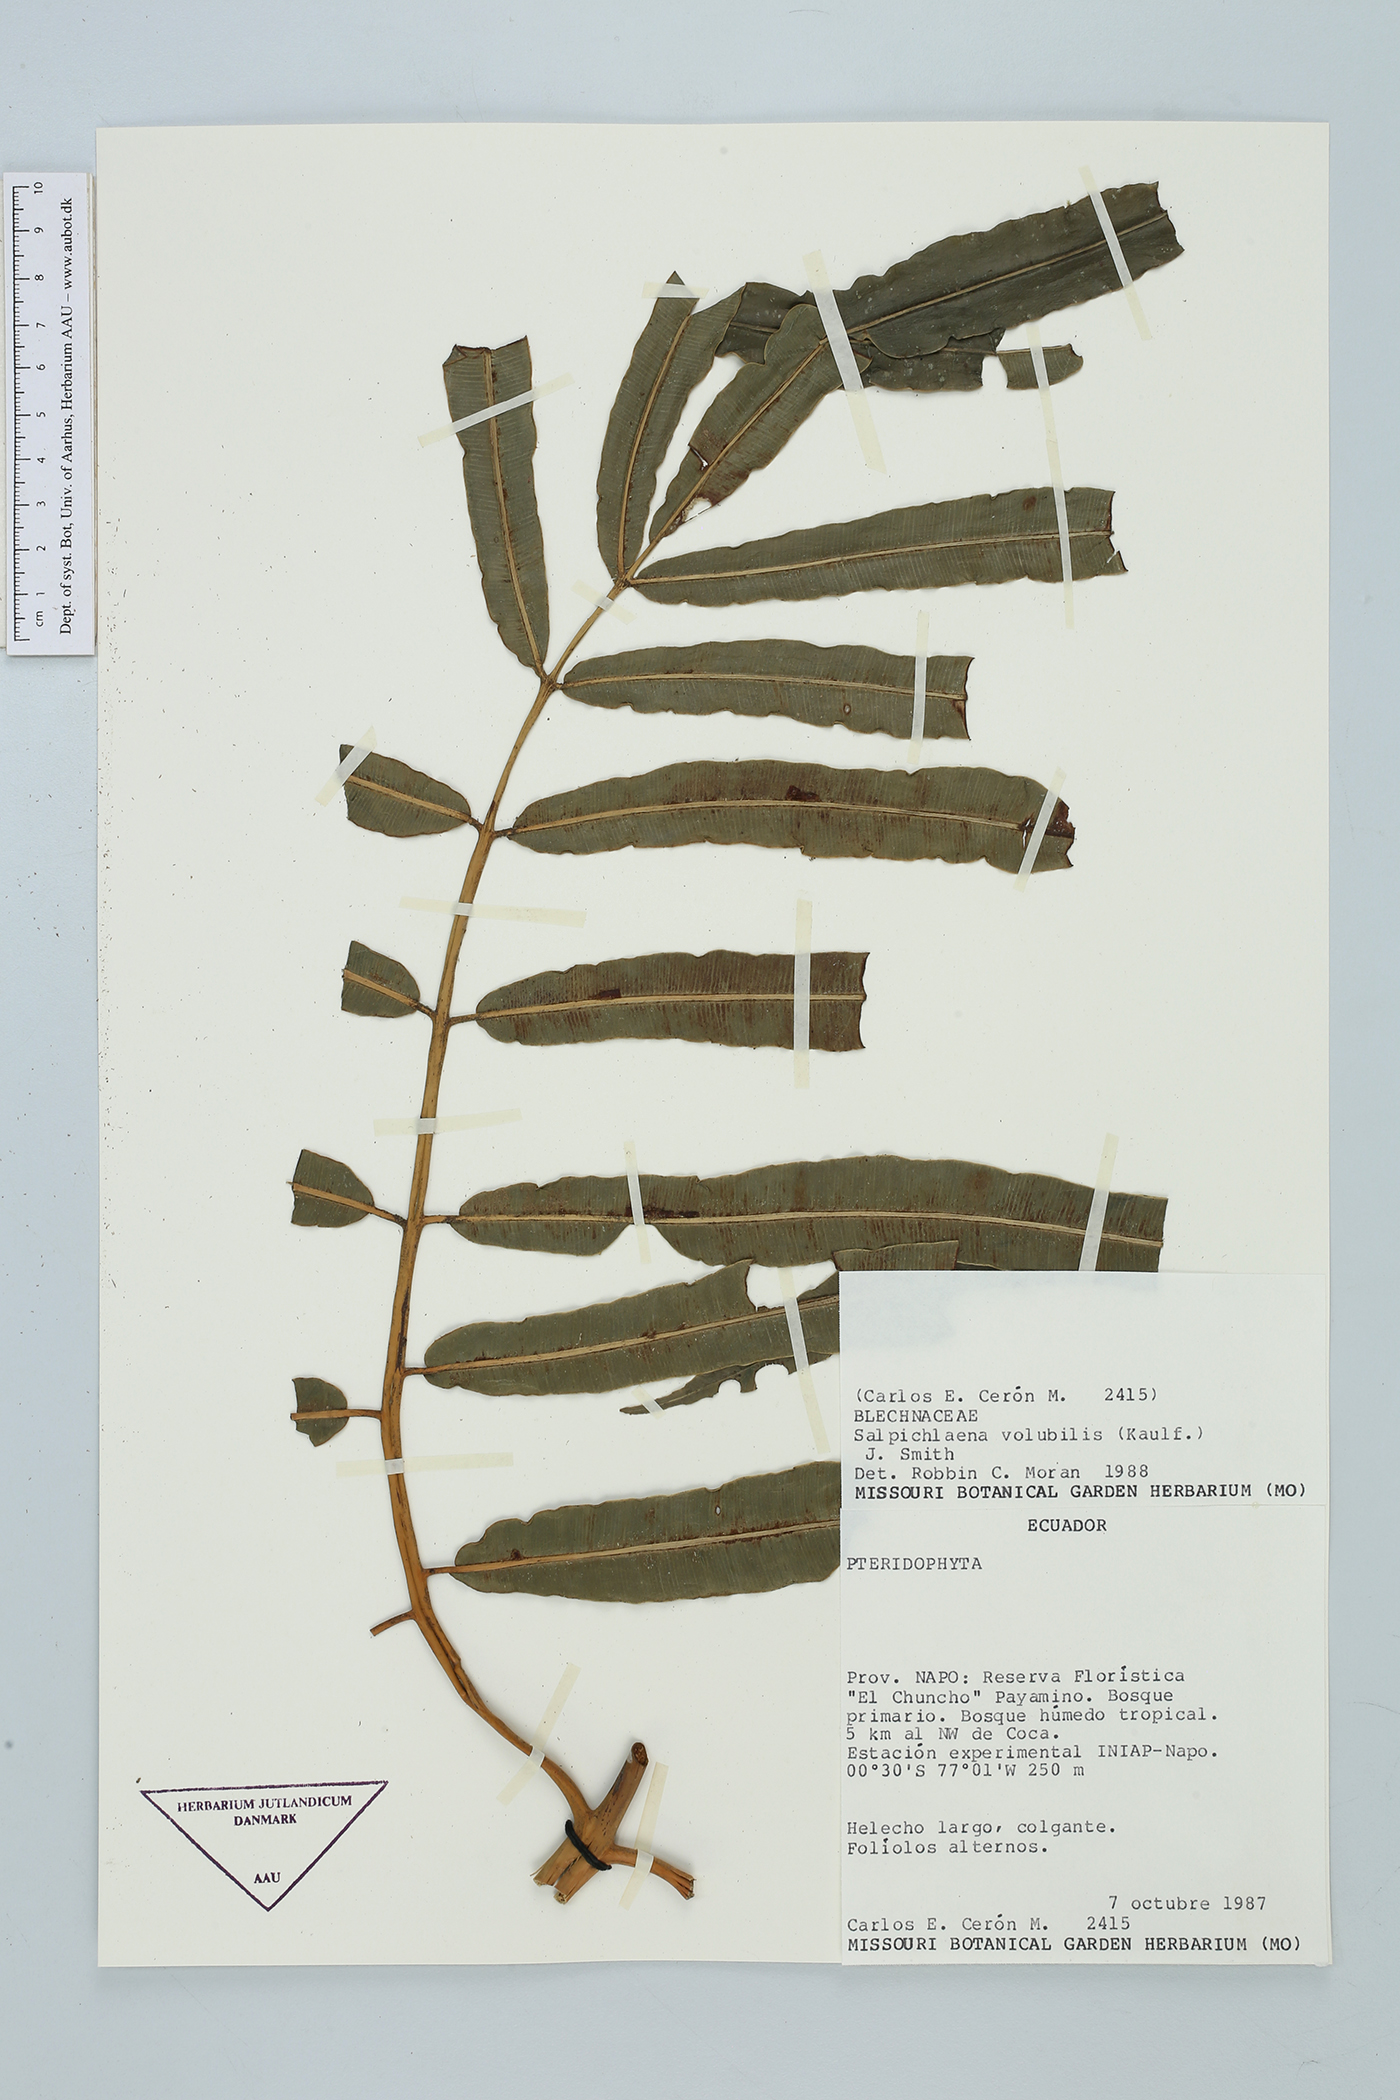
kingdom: Plantae
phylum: Tracheophyta
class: Polypodiopsida
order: Polypodiales
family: Blechnaceae
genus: Salpichlaena
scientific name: Salpichlaena volubilis
